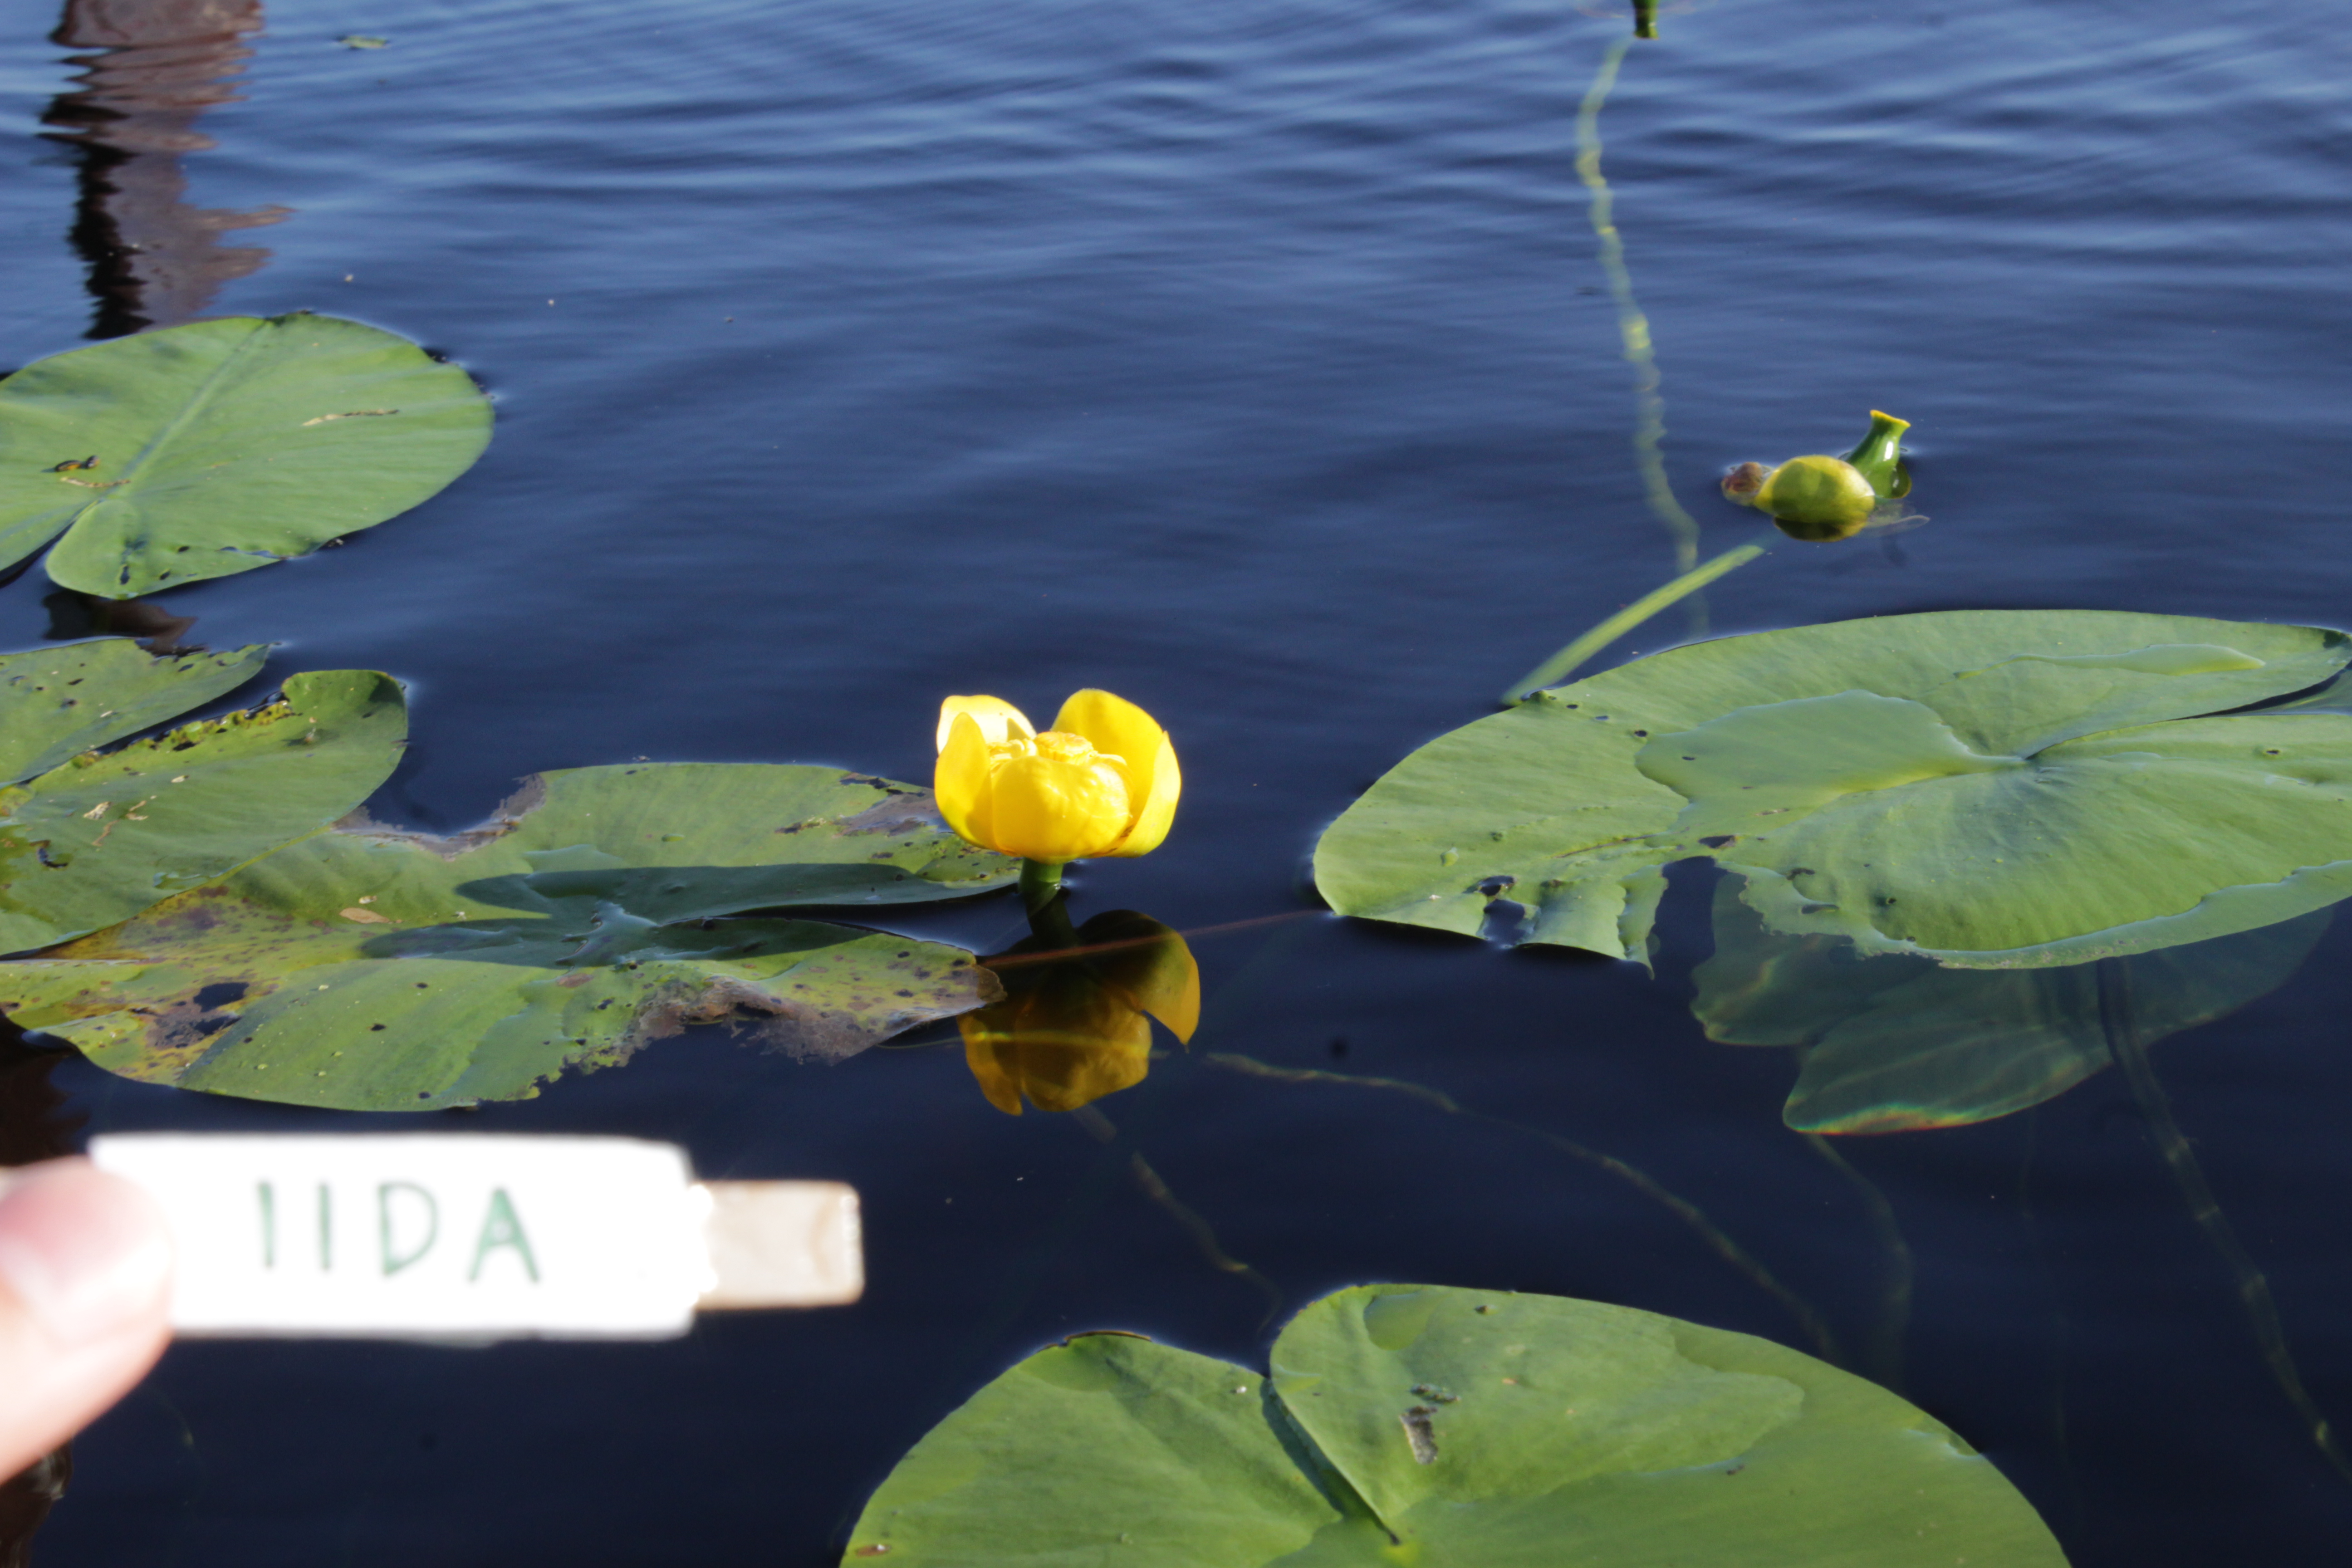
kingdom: Plantae
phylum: Tracheophyta
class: Magnoliopsida
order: Nymphaeales
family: Nymphaeaceae
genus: Nuphar
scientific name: Nuphar lutea
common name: Yellow water-lily
